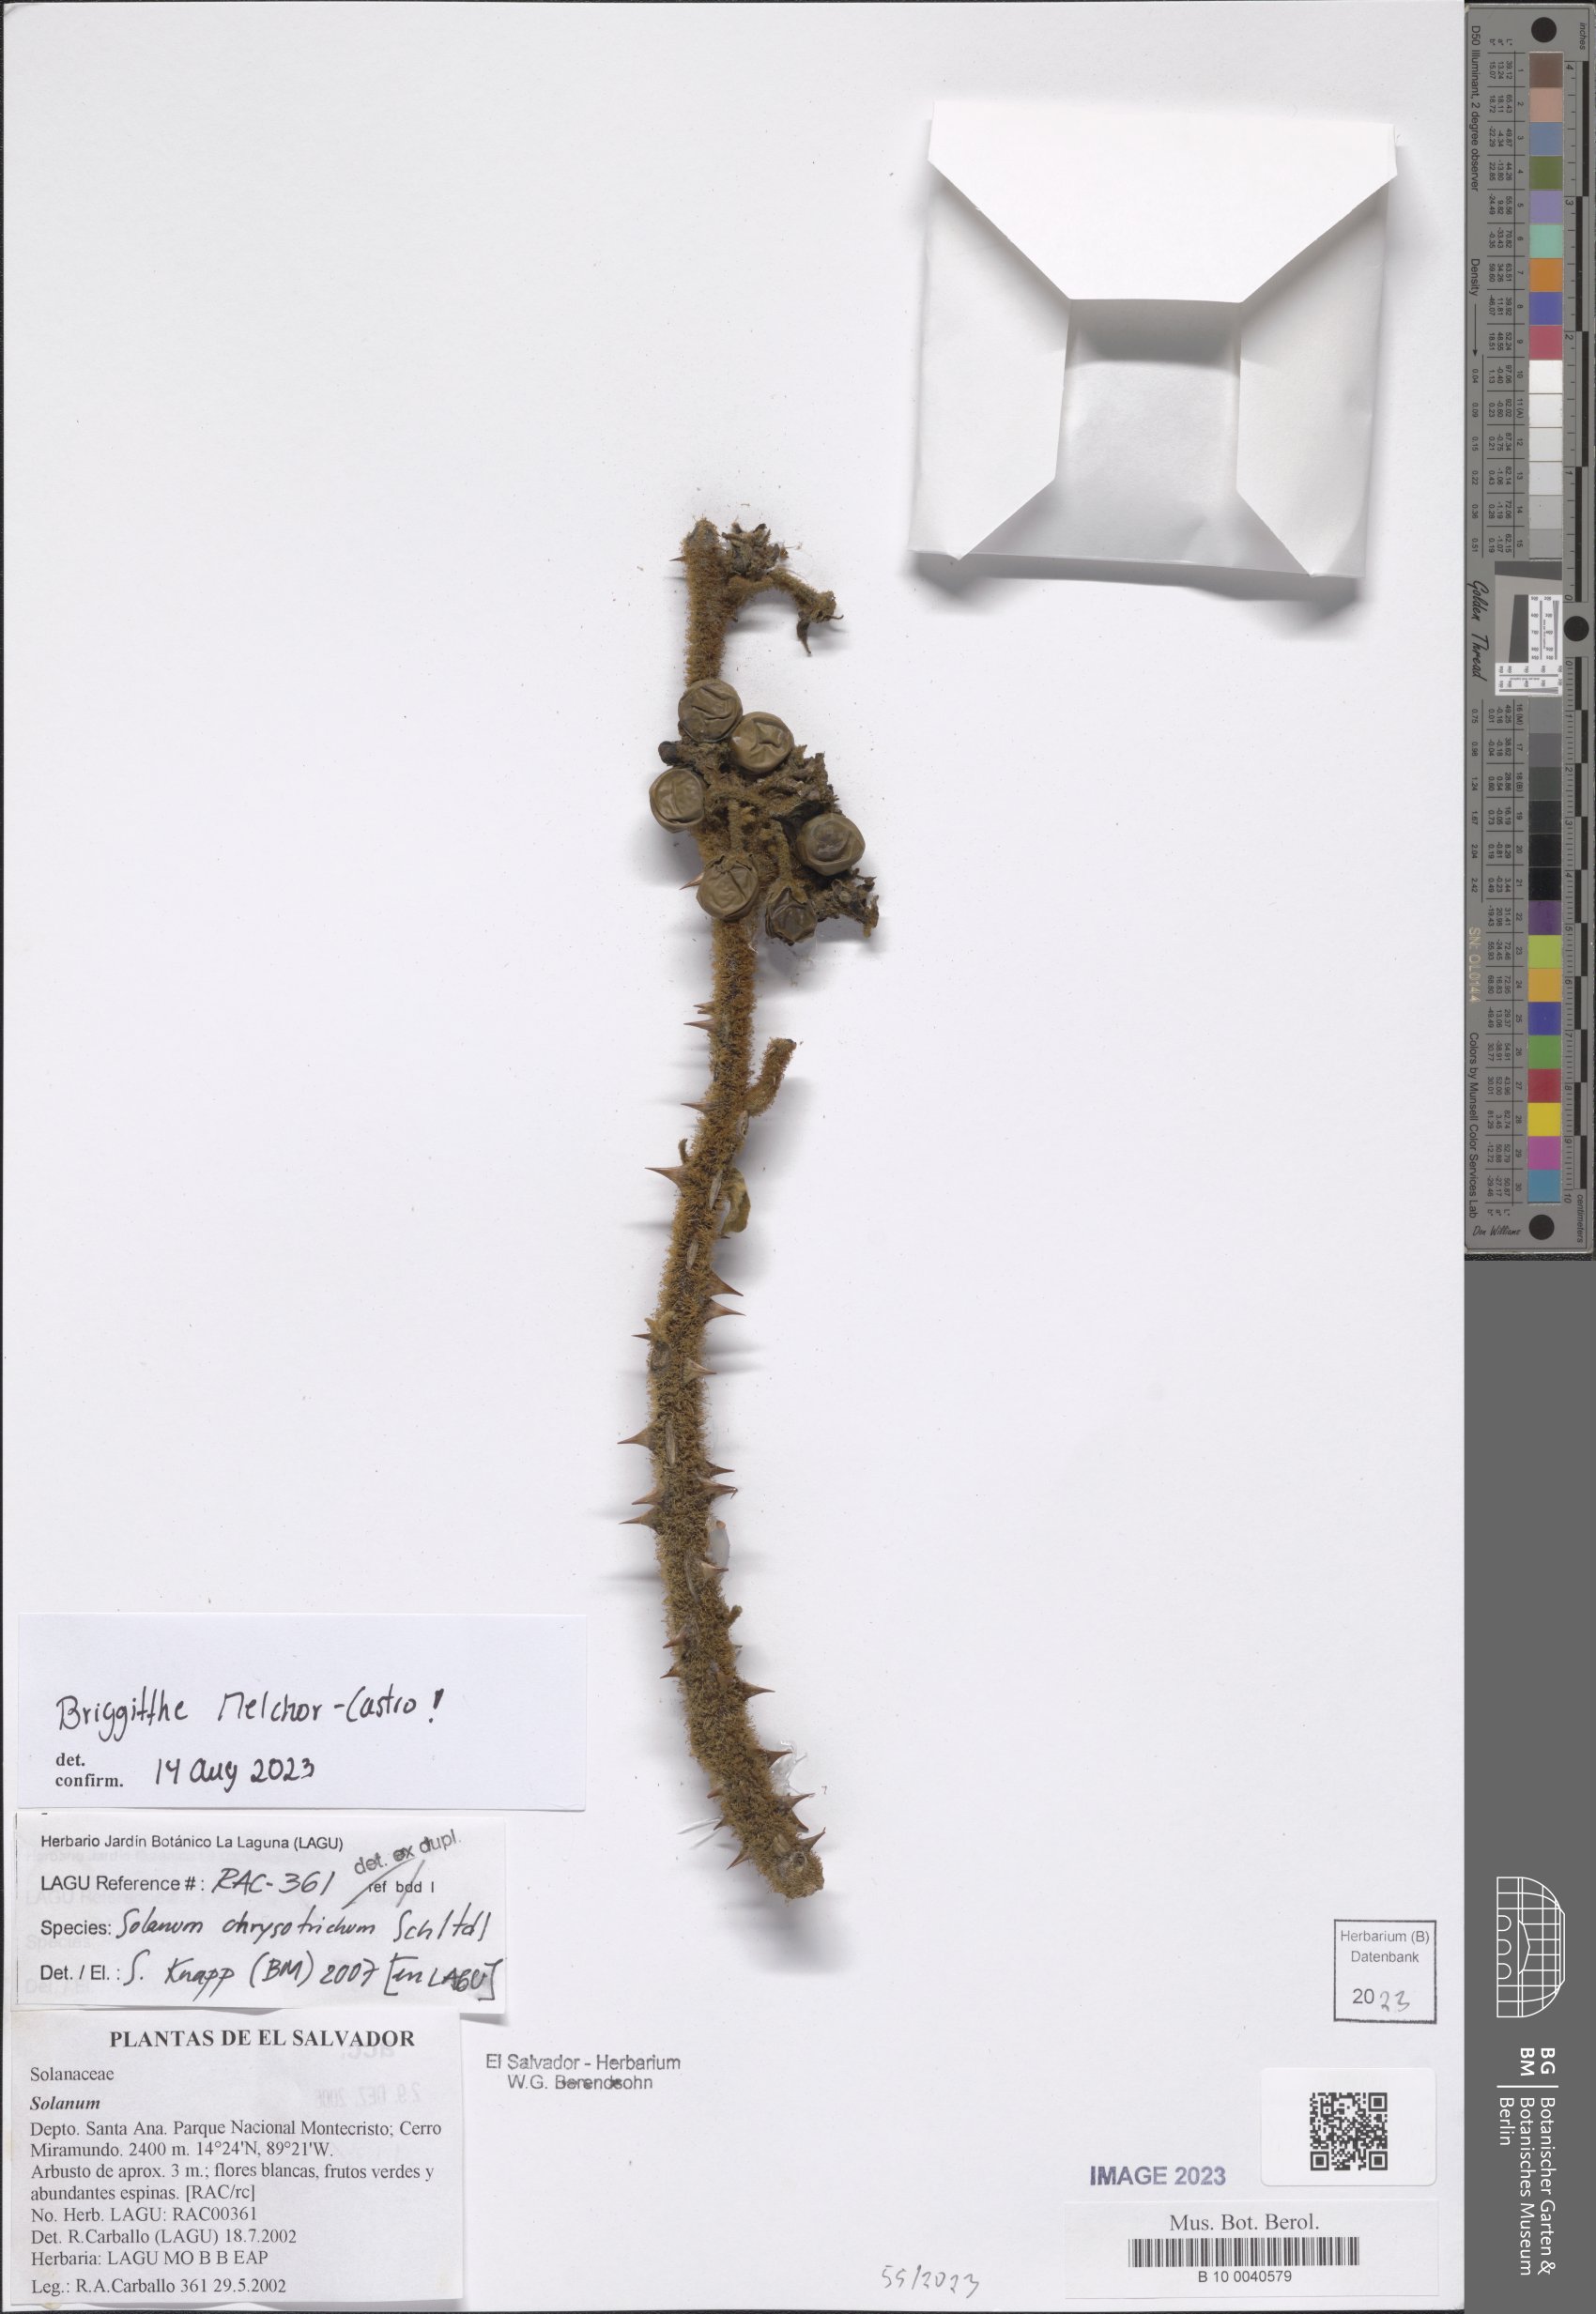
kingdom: Plantae
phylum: Tracheophyta
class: Magnoliopsida
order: Solanales
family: Solanaceae
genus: Solanum
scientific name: Solanum chrysotrichum
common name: Nightshade
